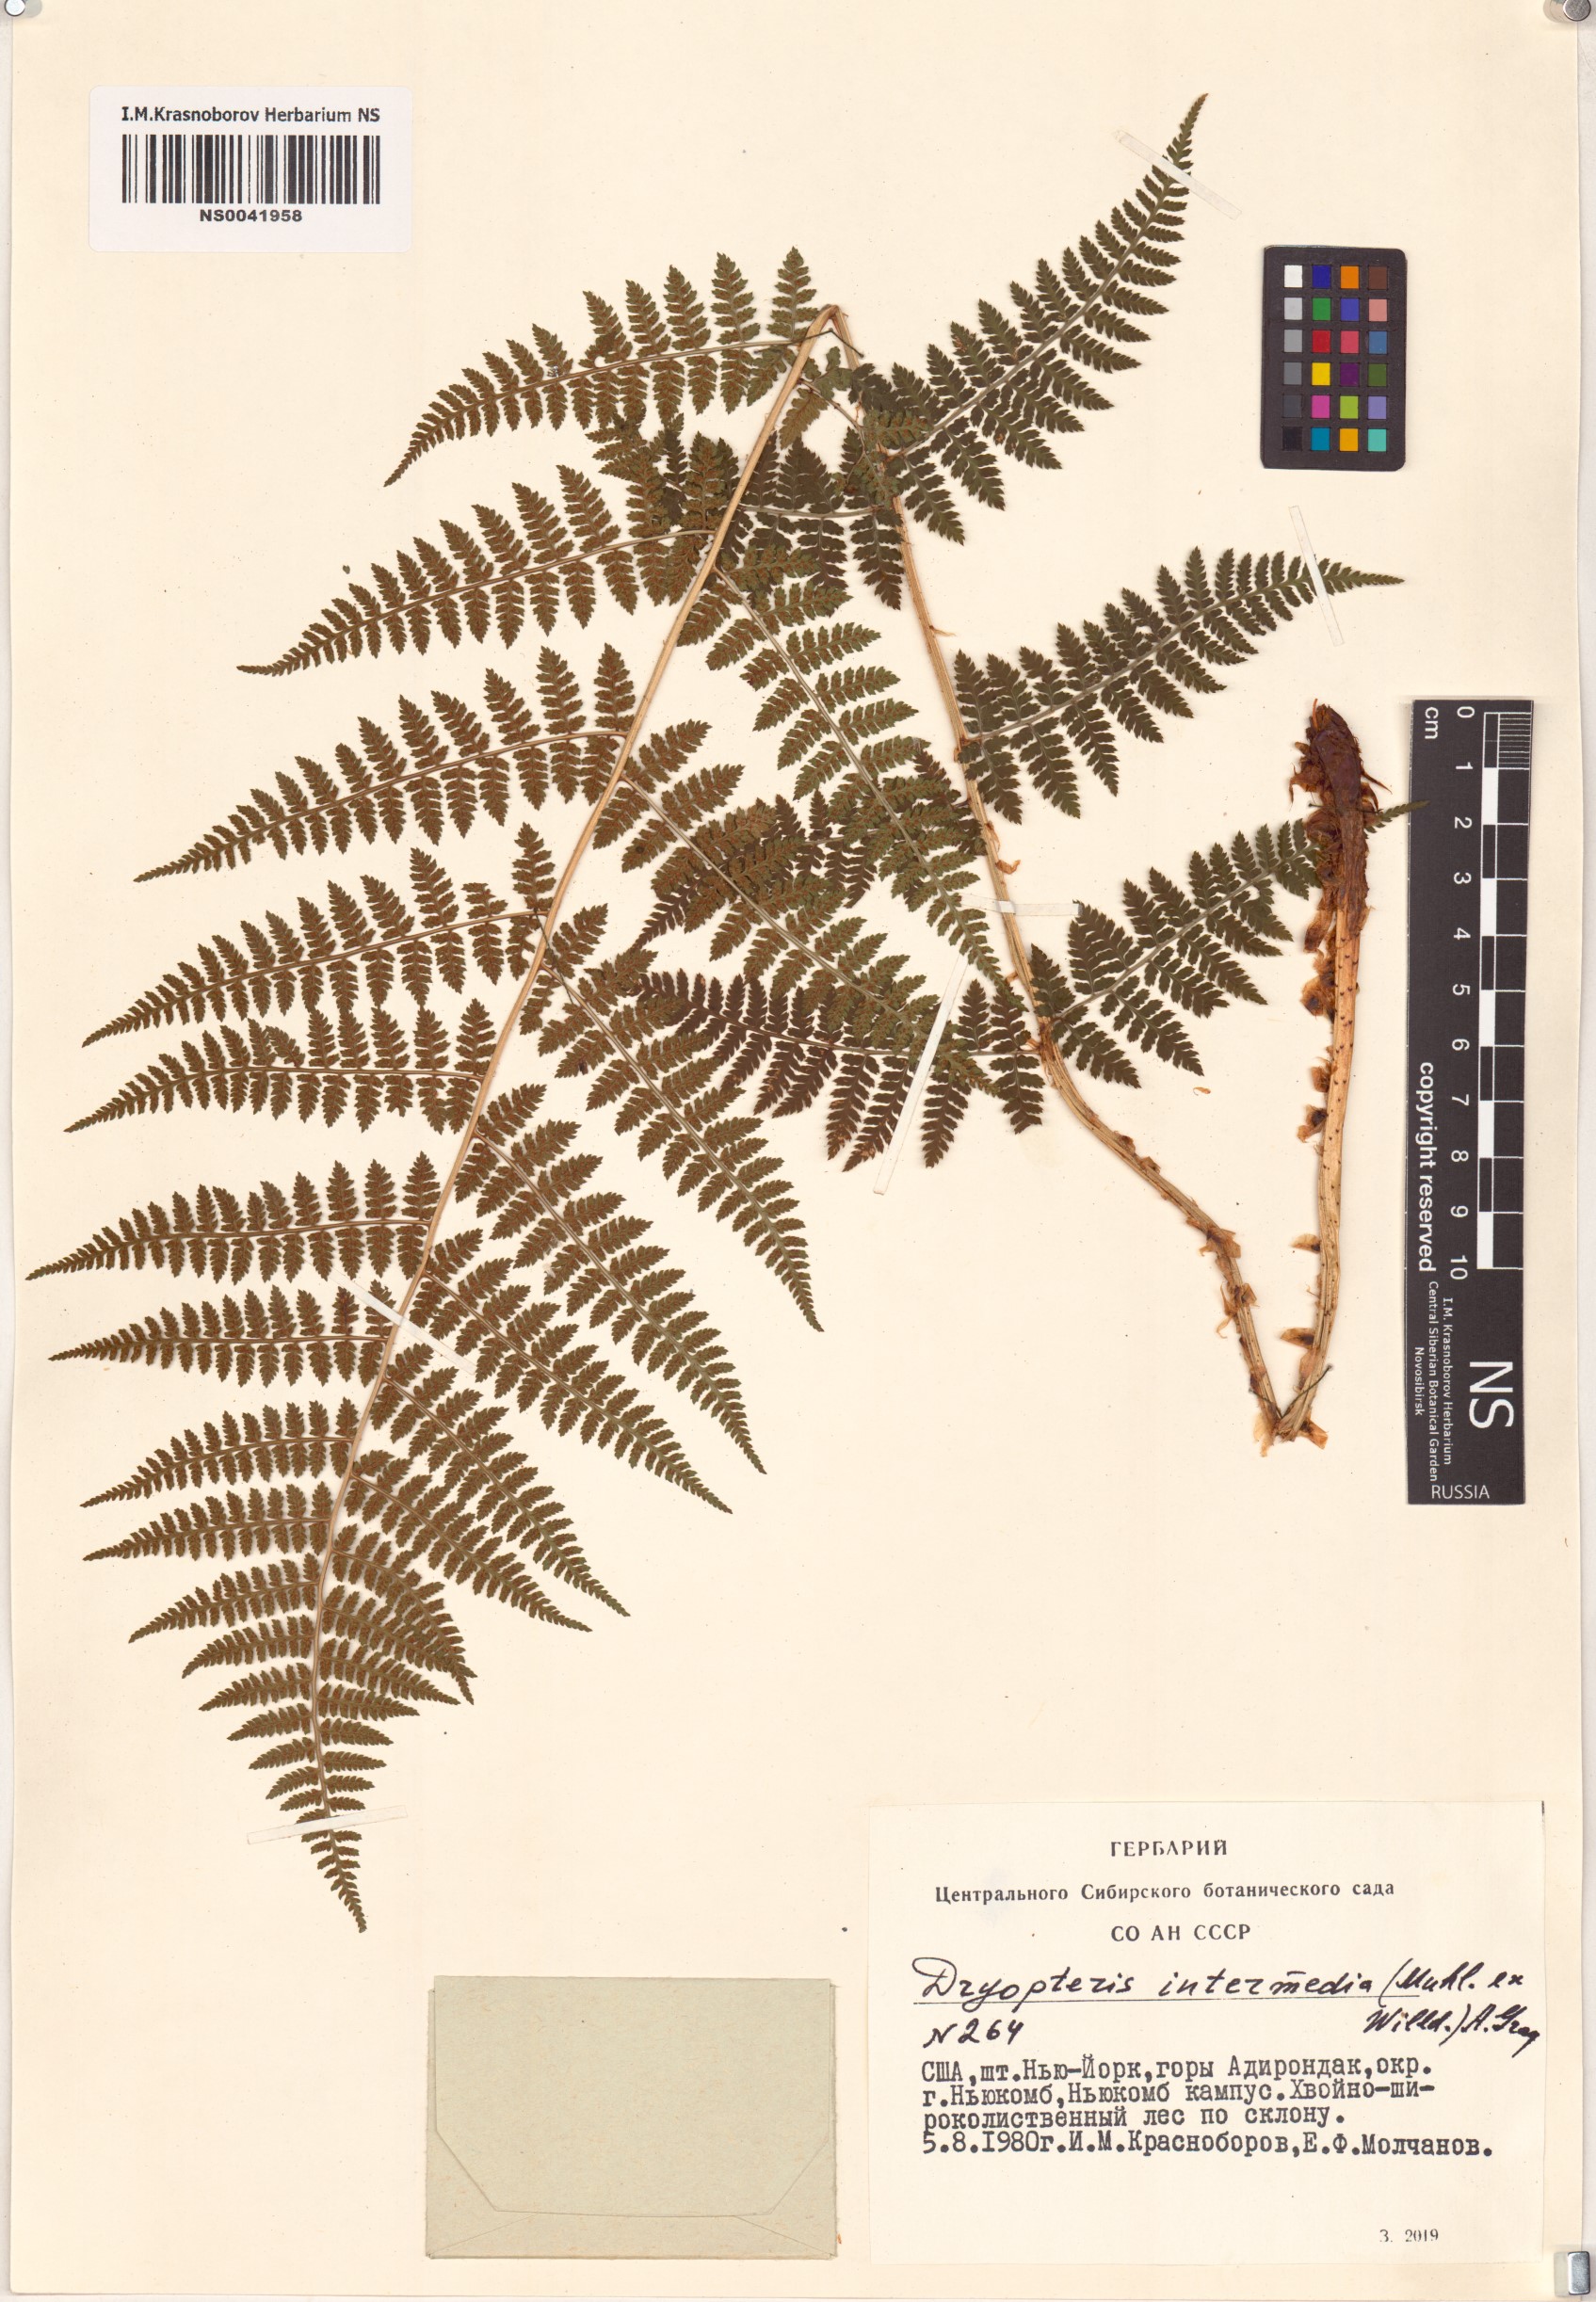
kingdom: Plantae
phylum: Tracheophyta
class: Polypodiopsida
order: Polypodiales
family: Dryopteridaceae
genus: Dryopteris
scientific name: Dryopteris intermedia
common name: Evergreen wood fern
